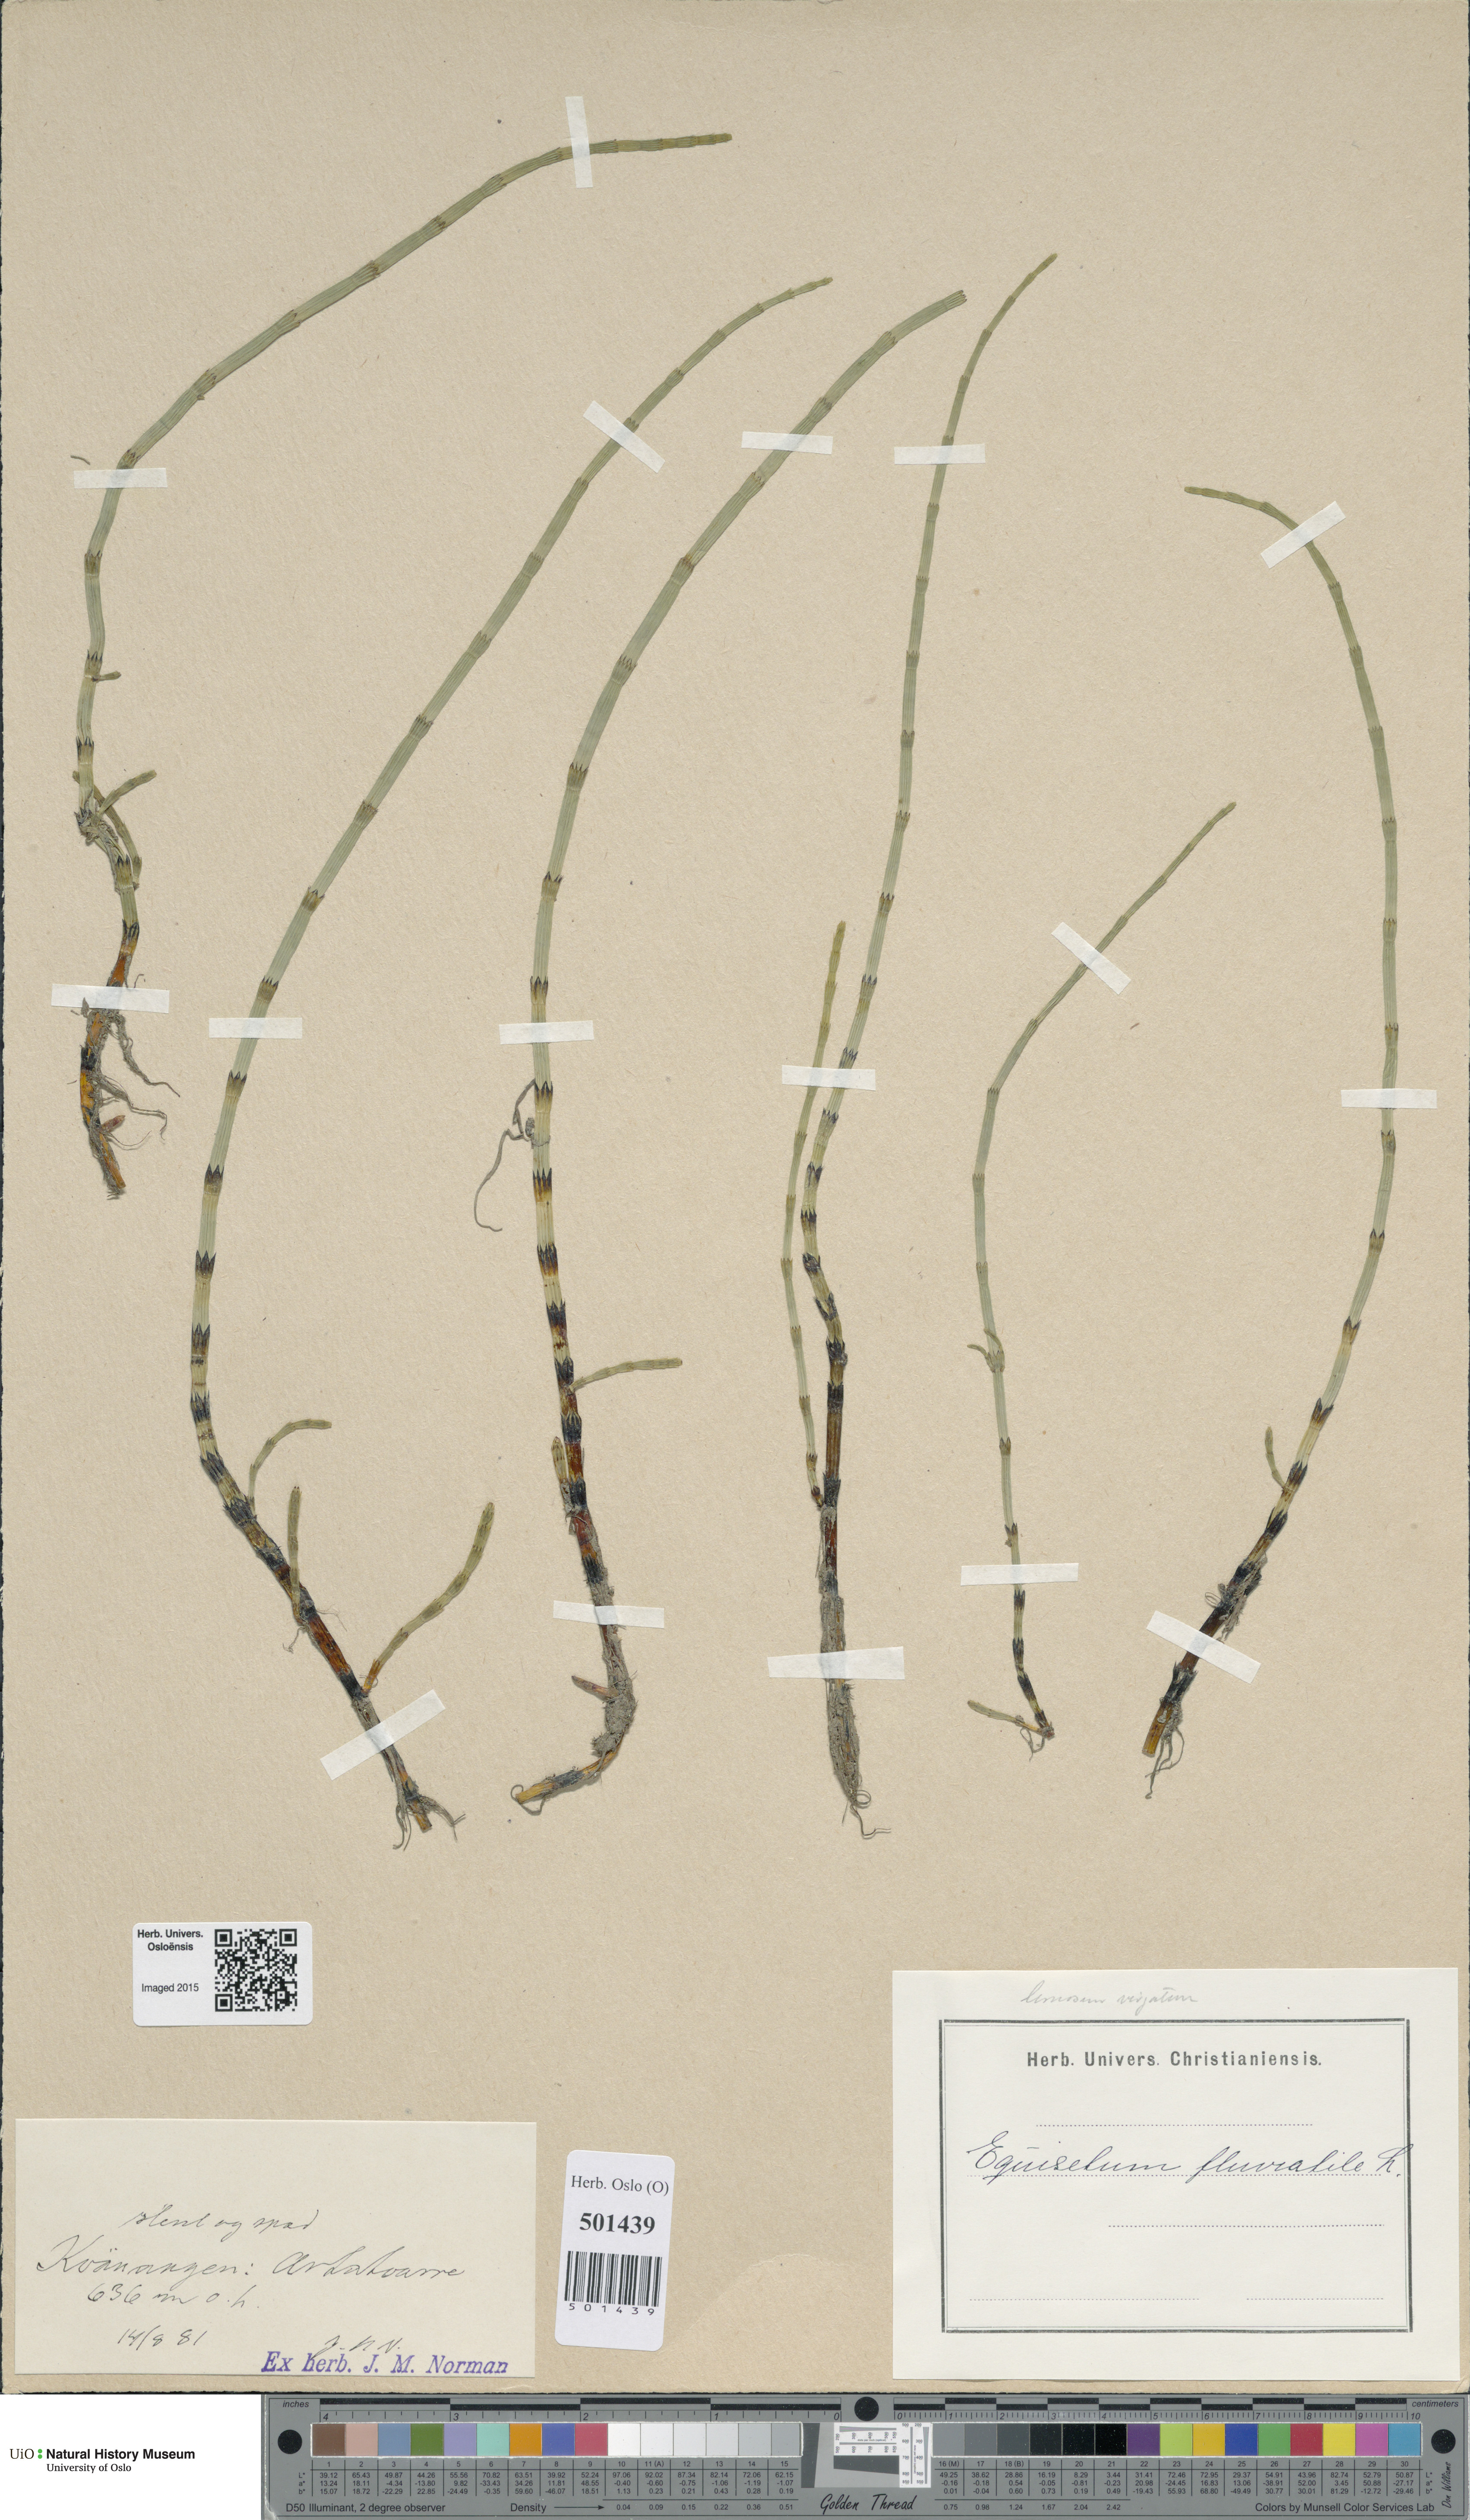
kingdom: Plantae
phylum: Tracheophyta
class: Polypodiopsida
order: Equisetales
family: Equisetaceae
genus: Equisetum
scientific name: Equisetum fluviatile
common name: Water horsetail
